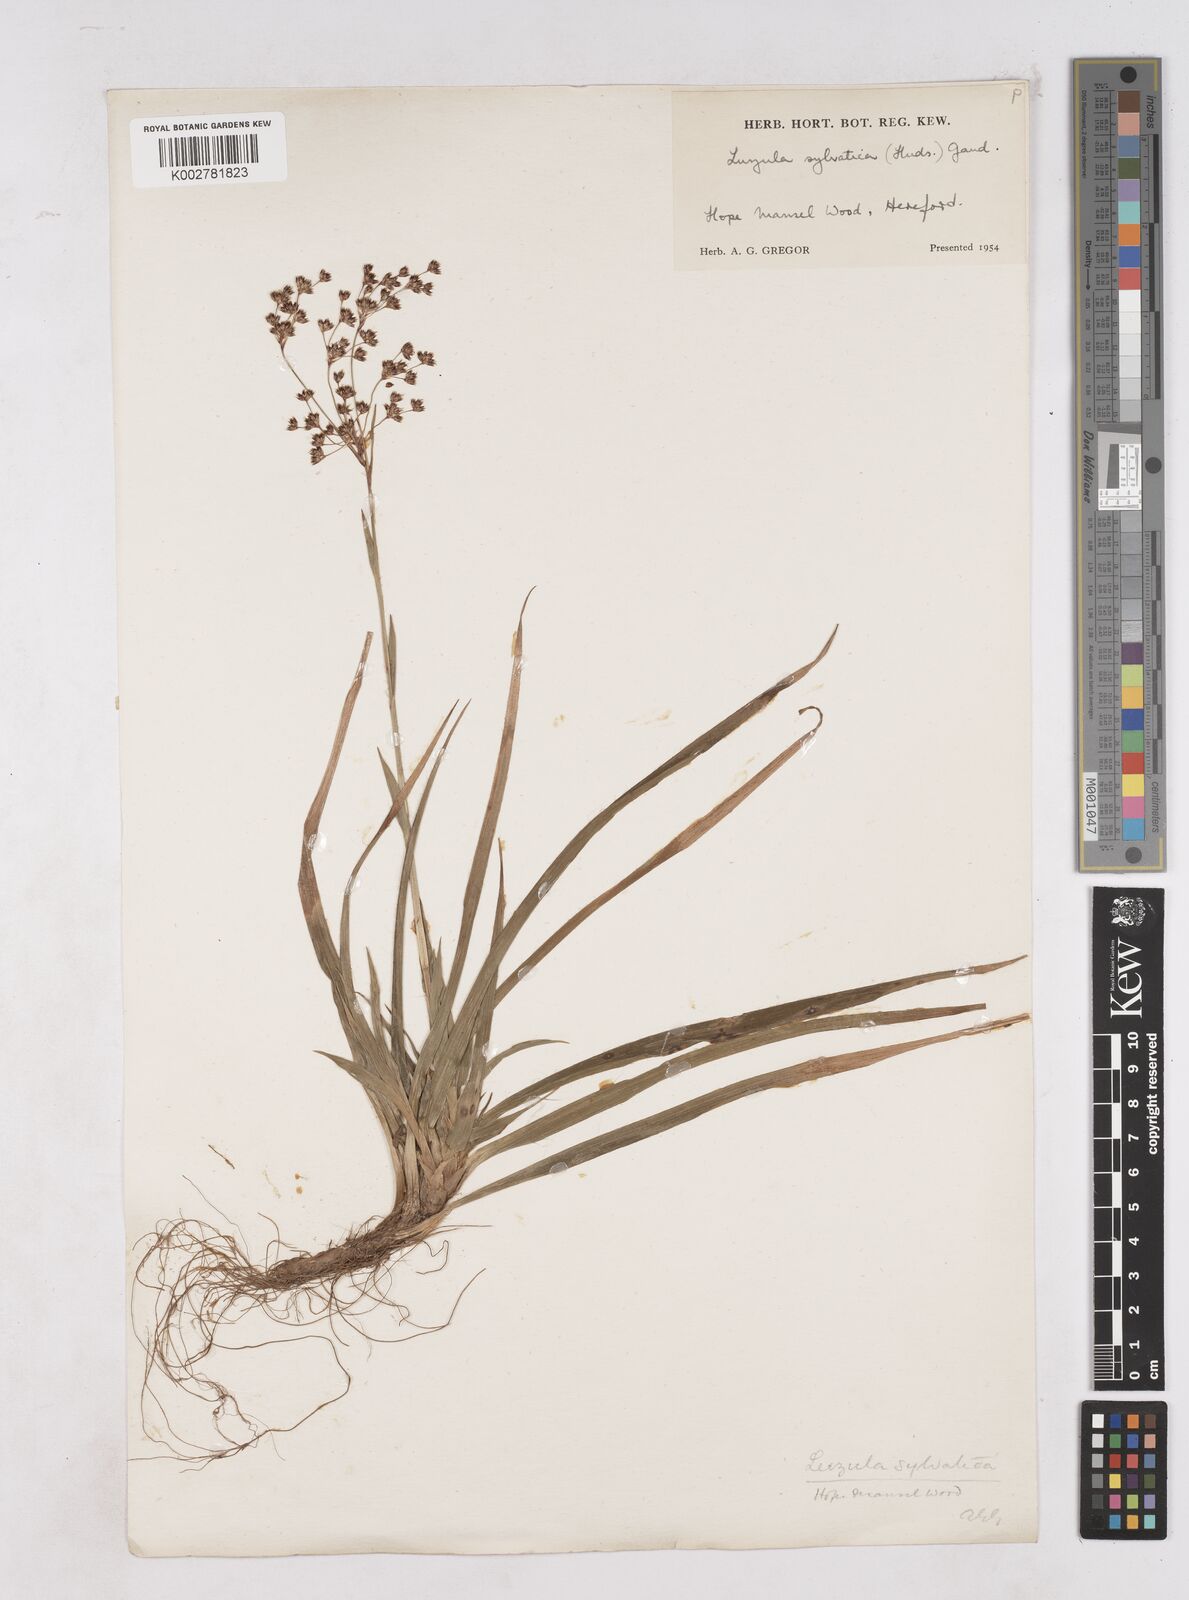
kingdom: Plantae
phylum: Tracheophyta
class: Liliopsida
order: Poales
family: Juncaceae
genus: Luzula
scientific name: Luzula sylvatica
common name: Great wood-rush
